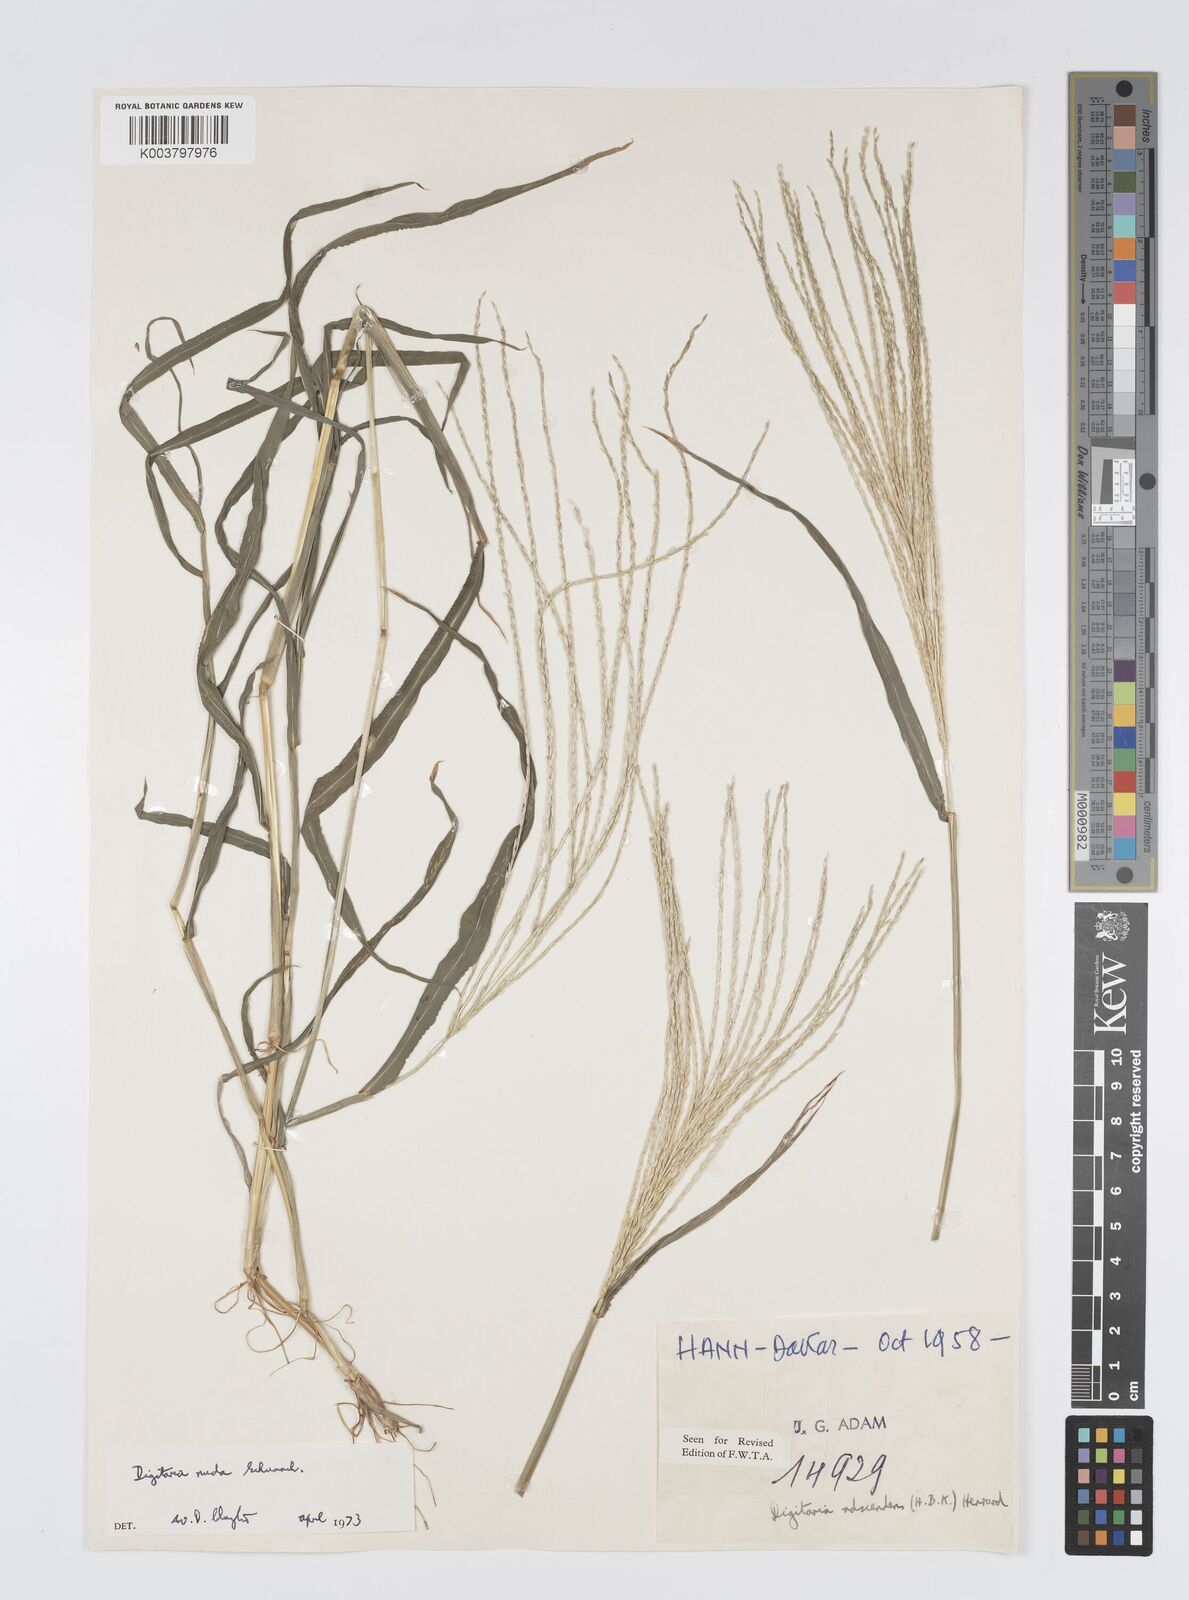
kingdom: Plantae
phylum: Tracheophyta
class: Liliopsida
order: Poales
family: Poaceae
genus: Digitaria
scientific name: Digitaria nuda
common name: Naked crabgrass
